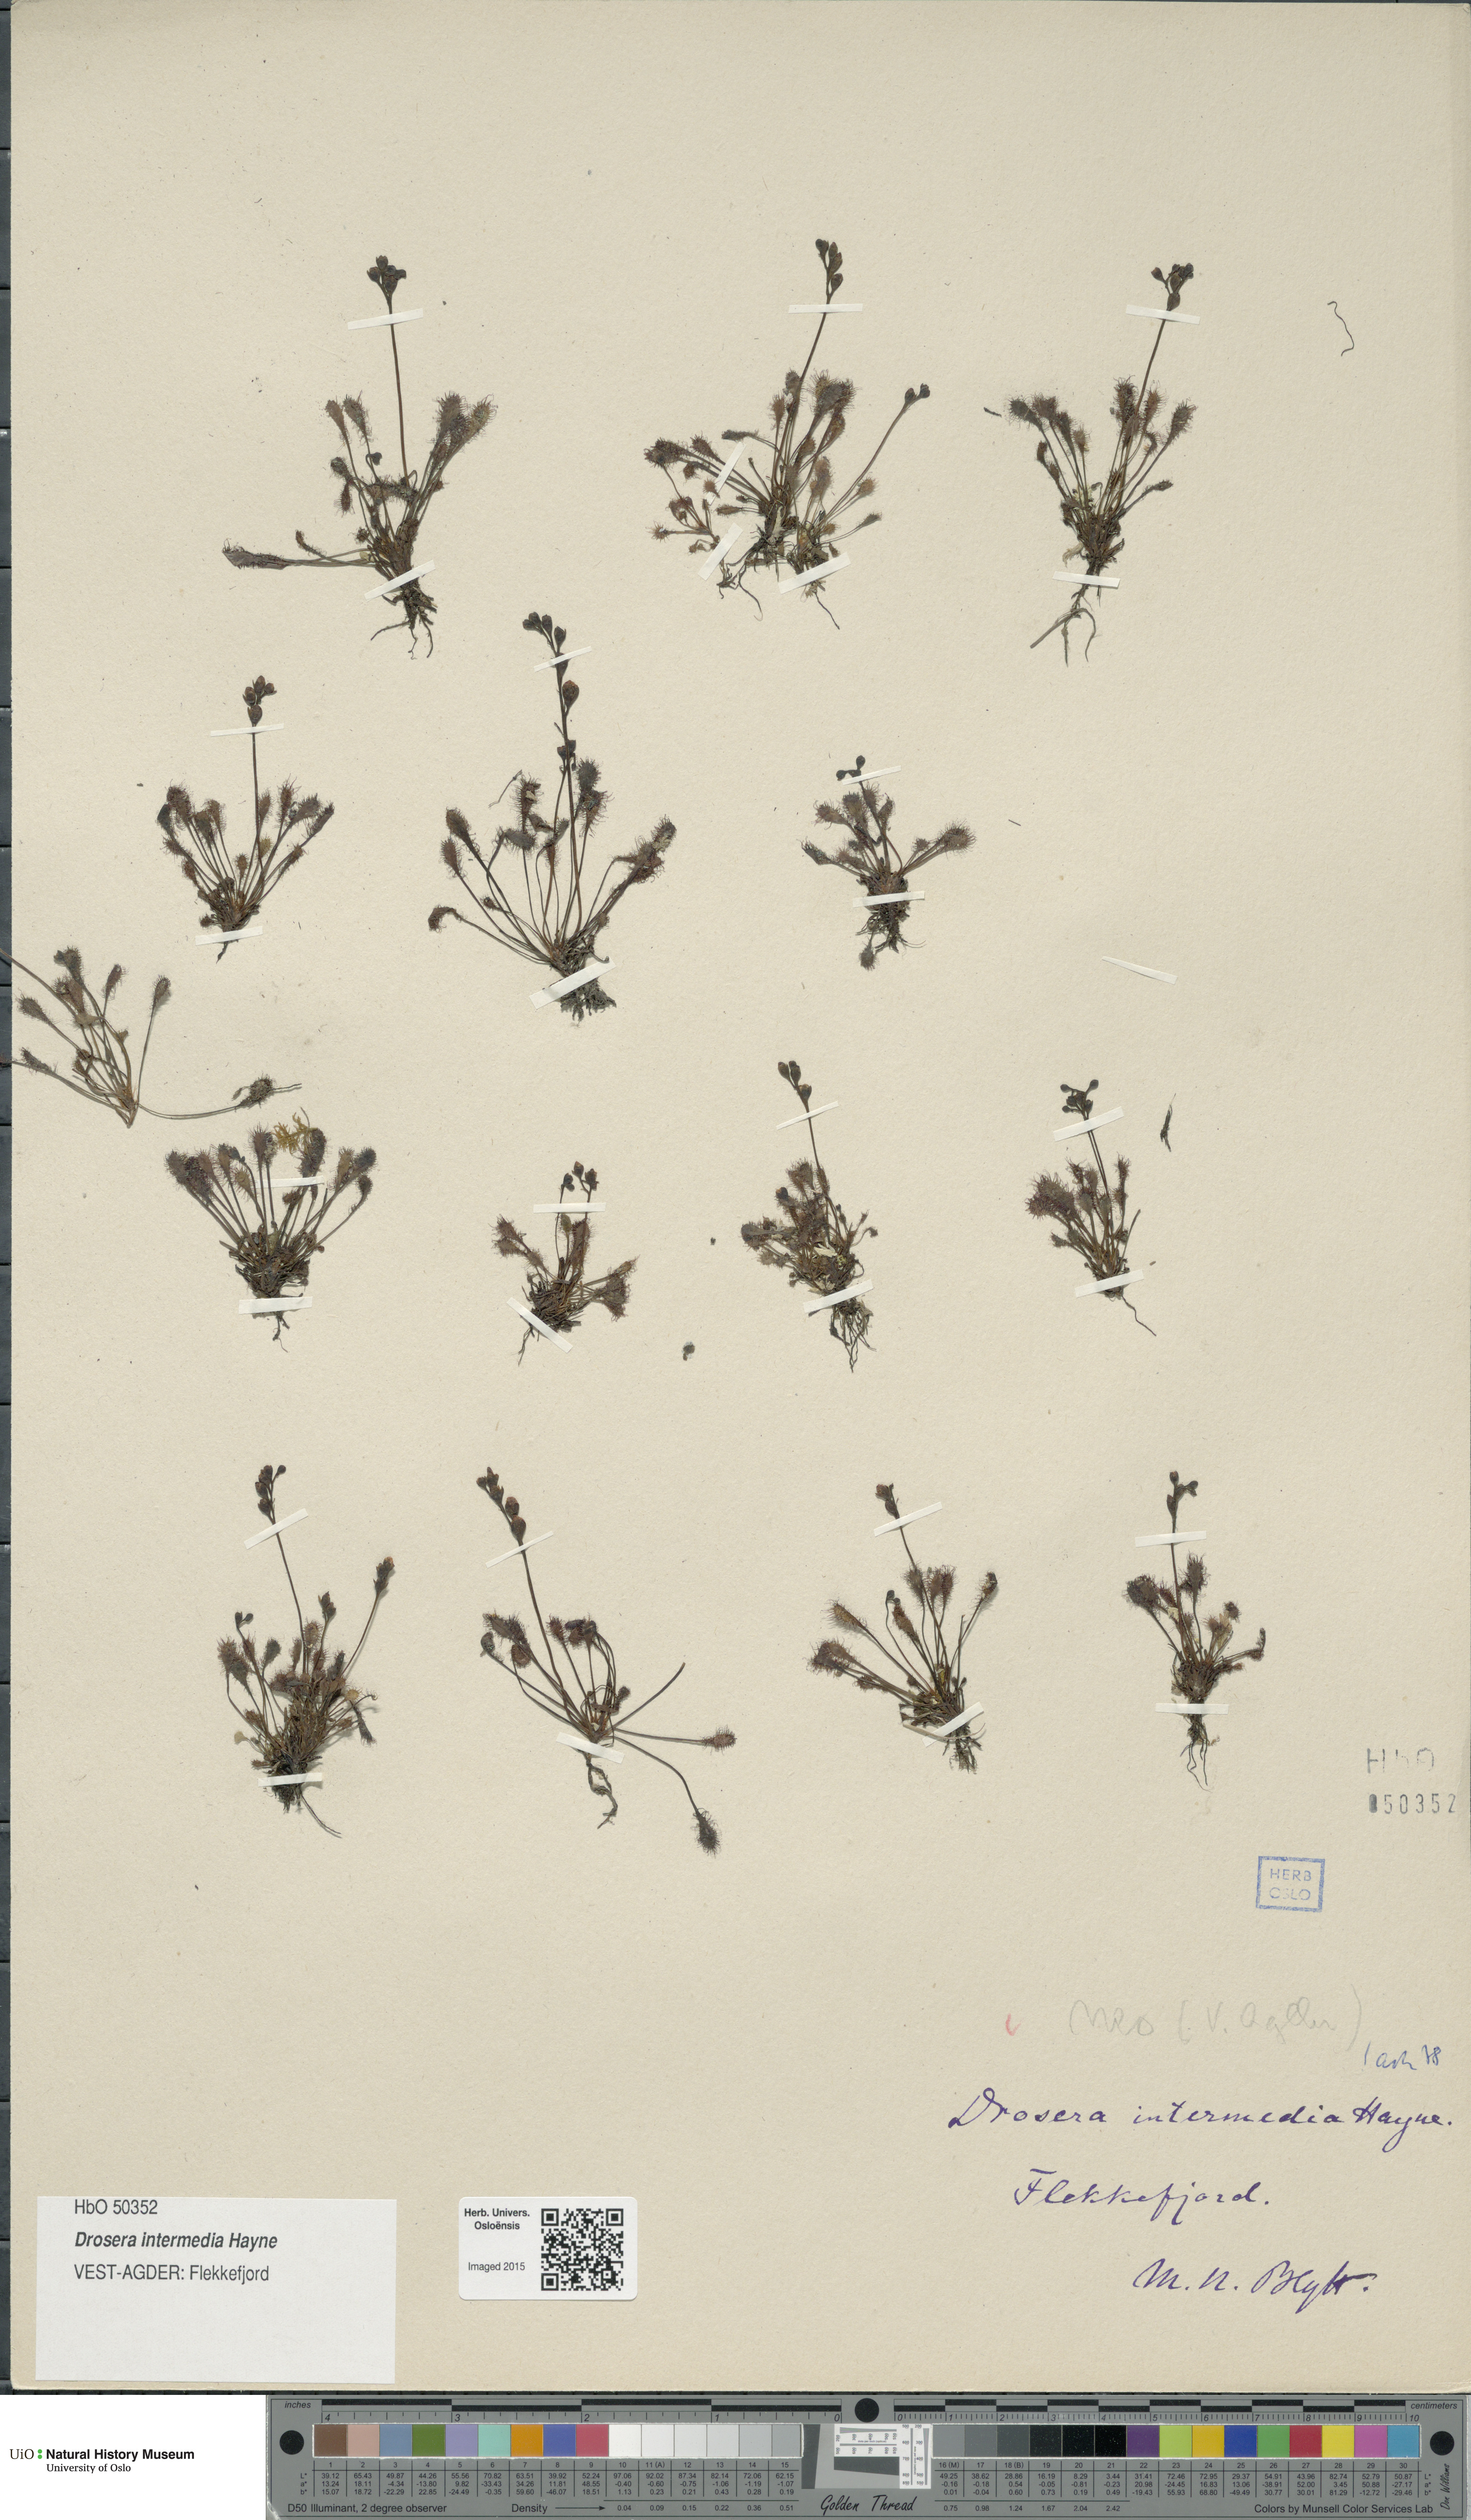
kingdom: Plantae
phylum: Tracheophyta
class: Magnoliopsida
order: Caryophyllales
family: Droseraceae
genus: Drosera
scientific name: Drosera intermedia
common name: Oblong-leaved sundew
